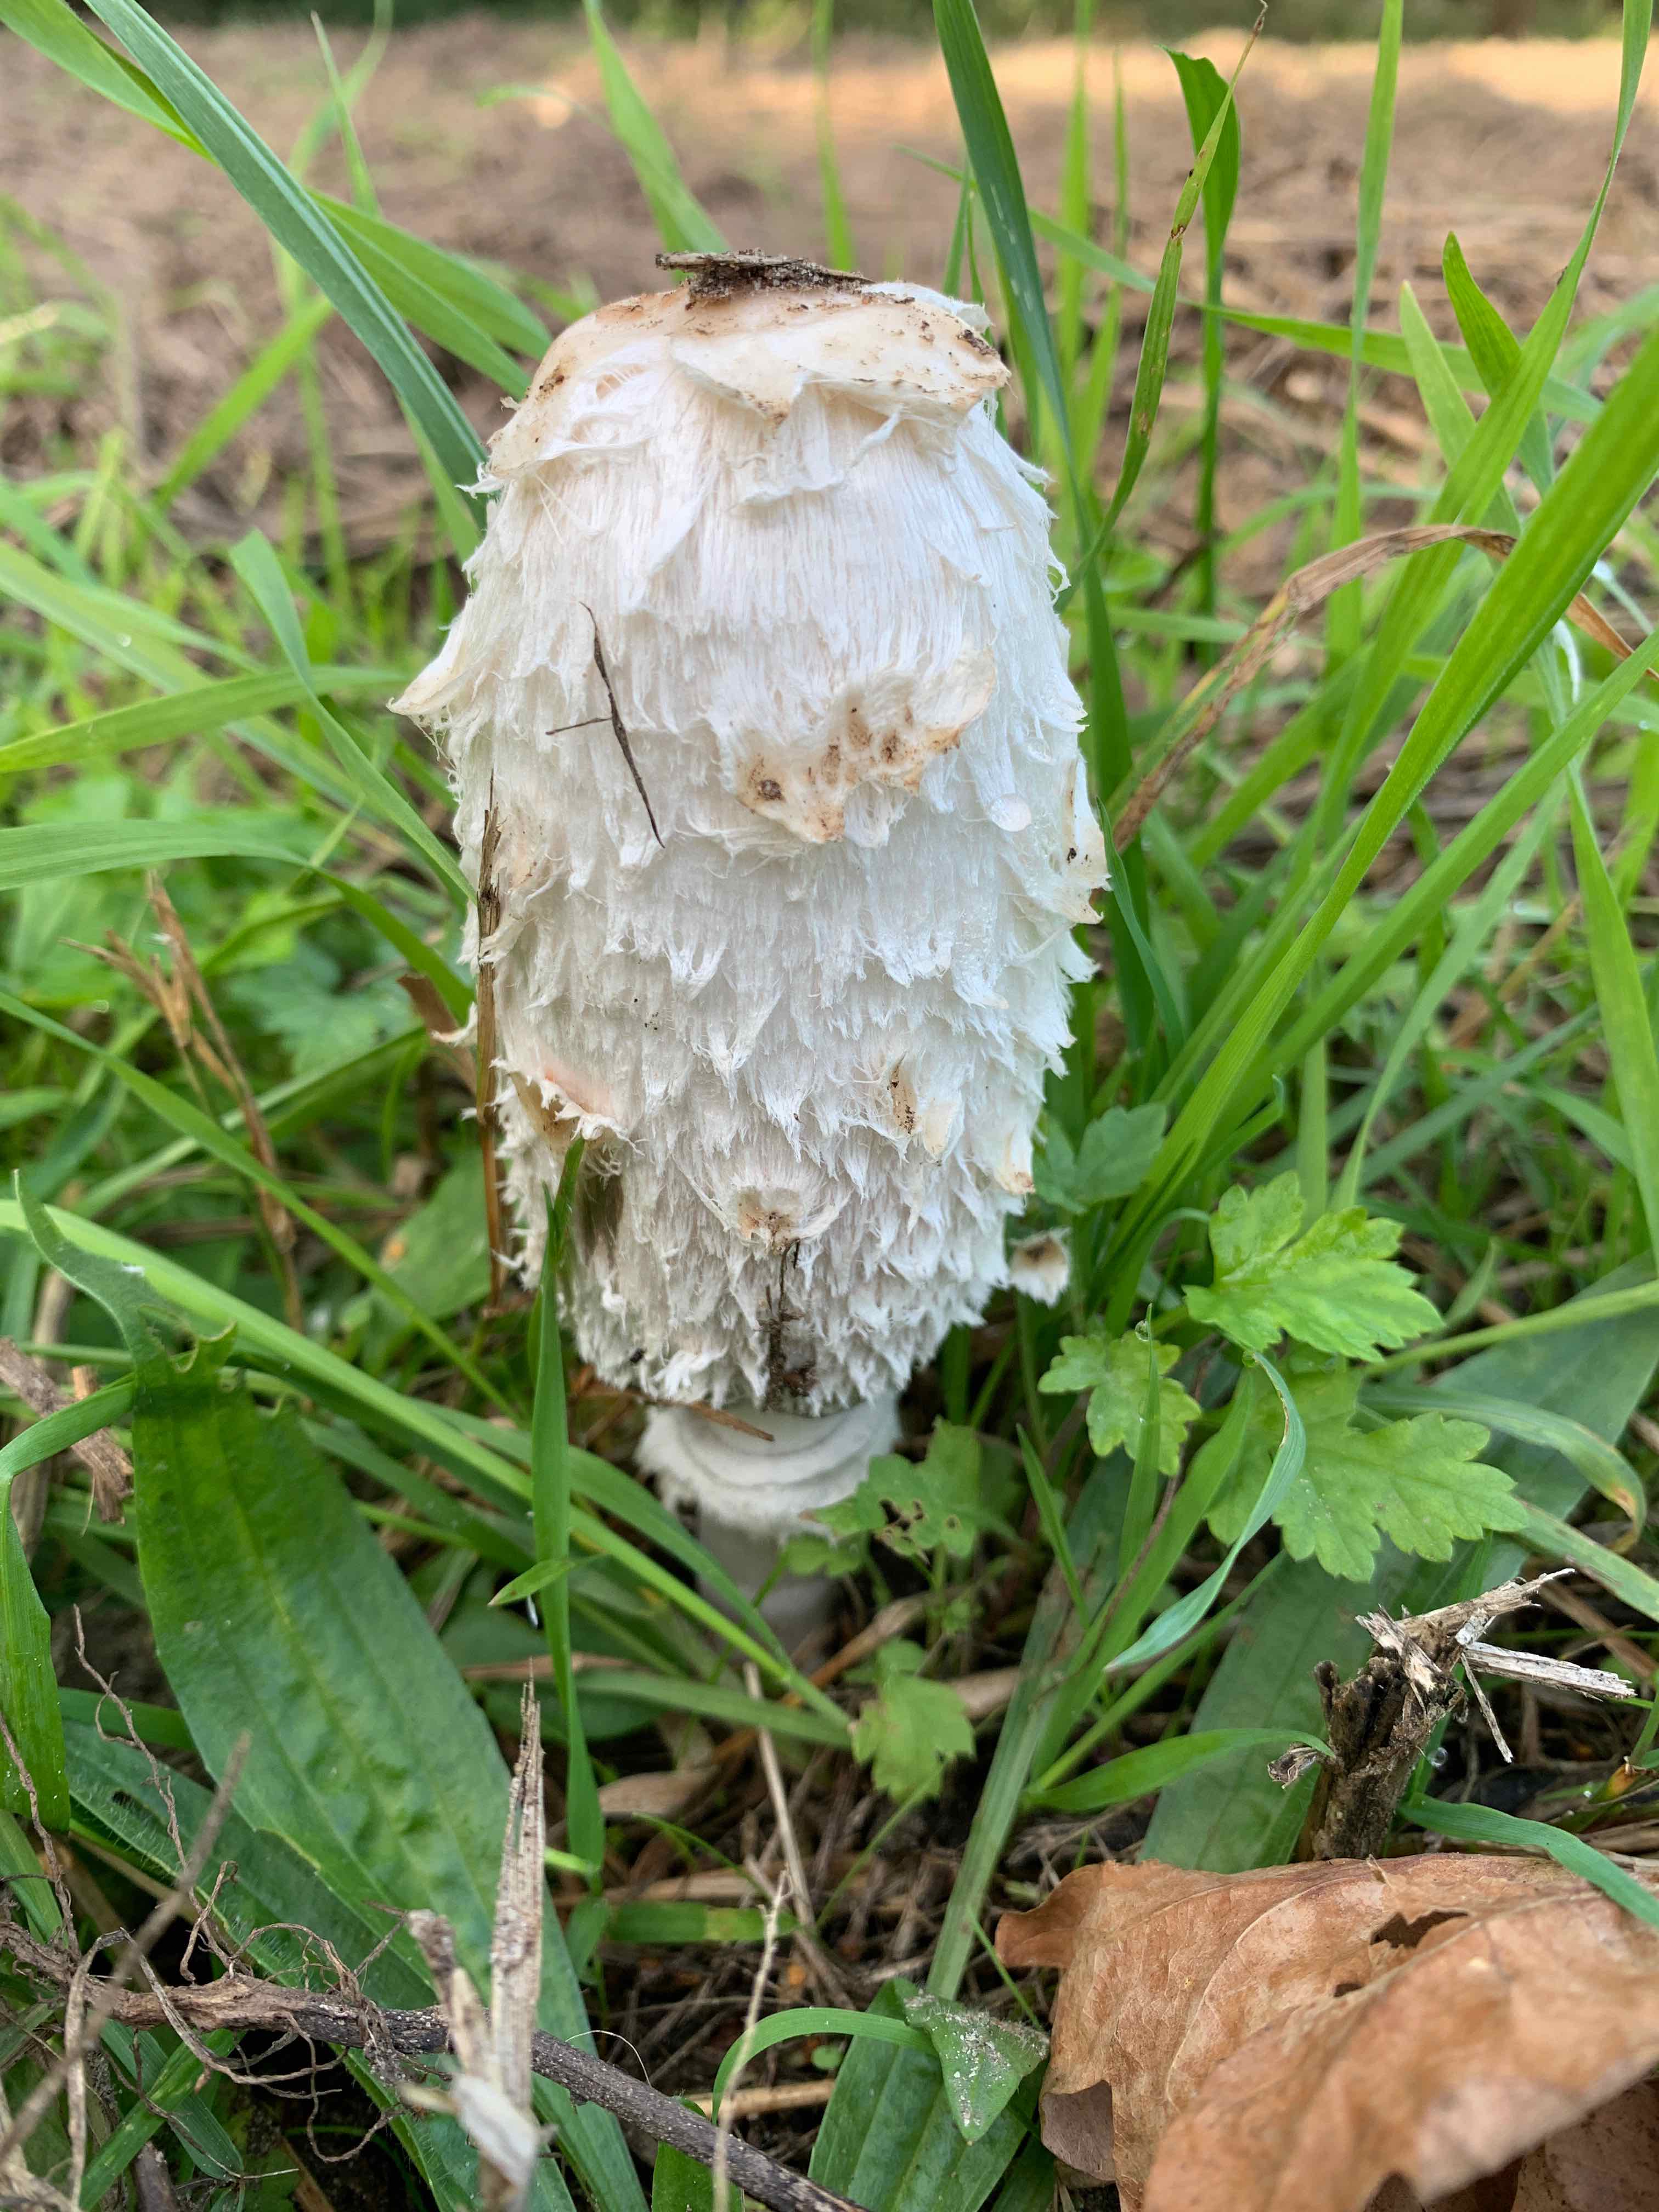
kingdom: Fungi
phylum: Basidiomycota
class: Agaricomycetes
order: Agaricales
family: Agaricaceae
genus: Coprinus
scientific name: Coprinus comatus
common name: stor parykhat
